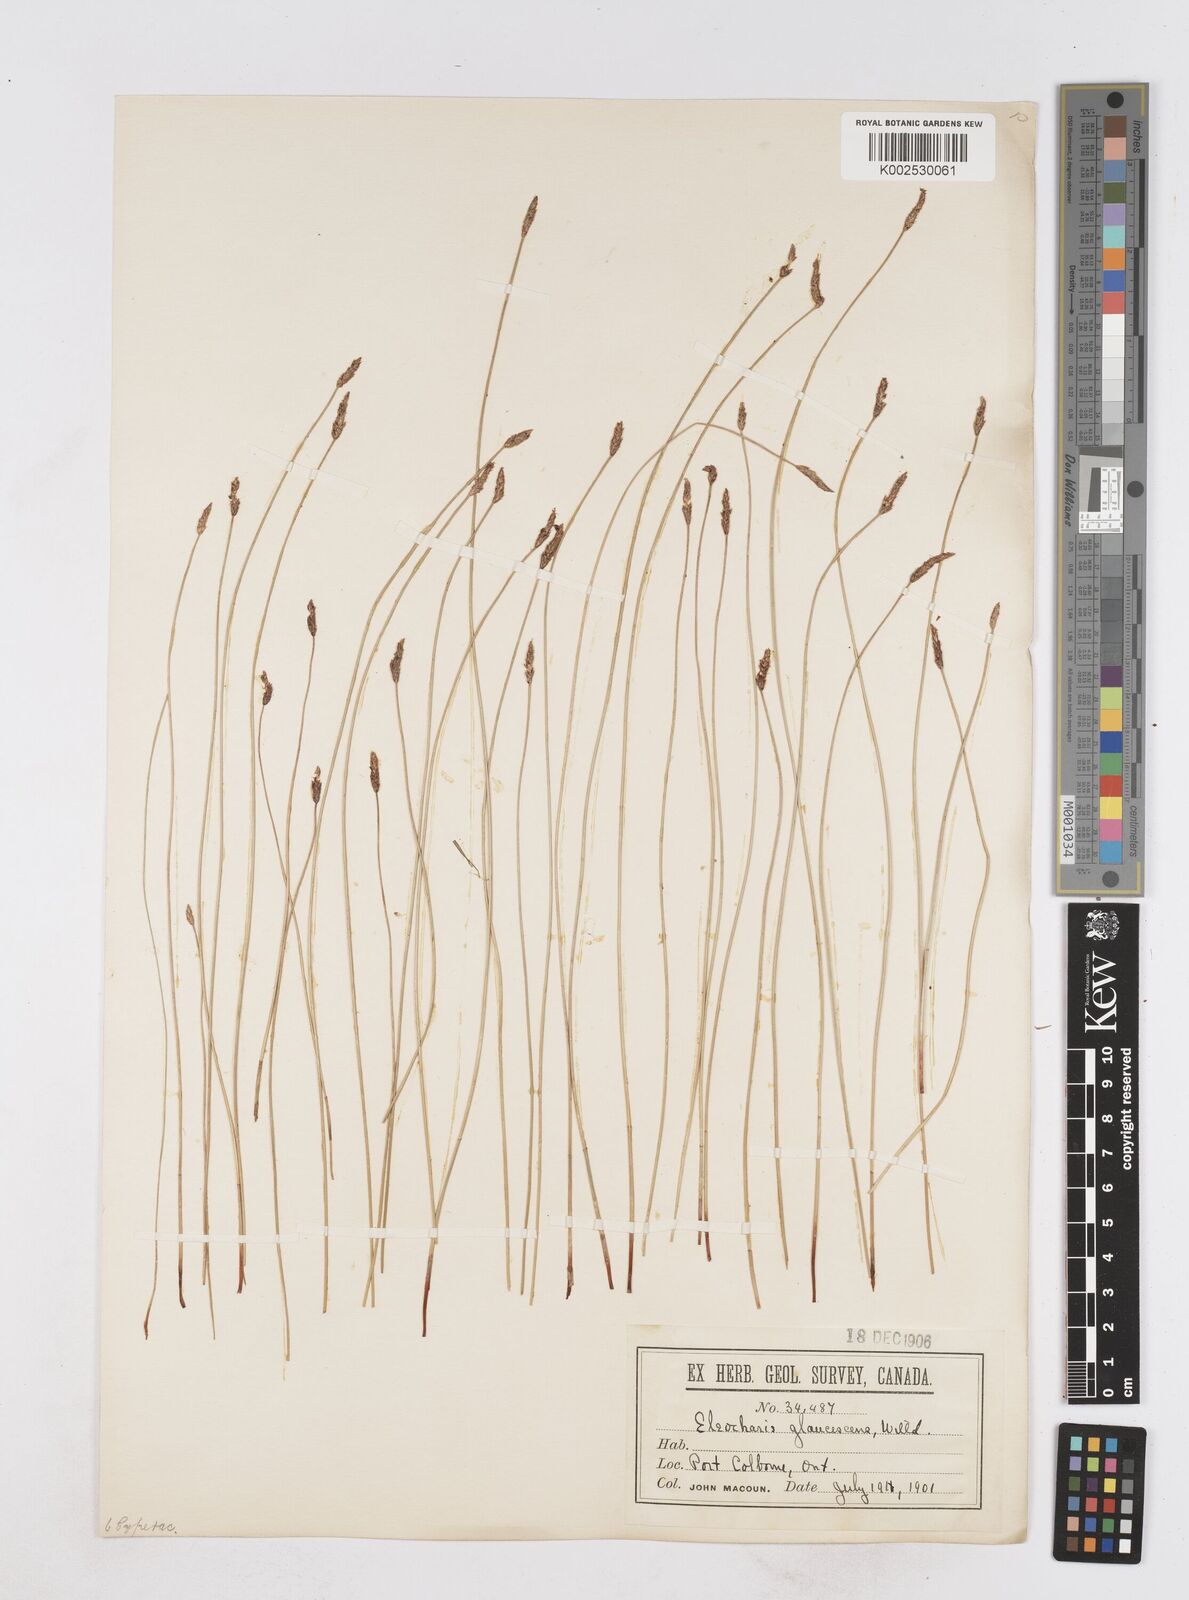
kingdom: Plantae
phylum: Tracheophyta
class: Liliopsida
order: Poales
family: Cyperaceae
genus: Eleocharis
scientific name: Eleocharis palustris
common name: Common spike-rush
